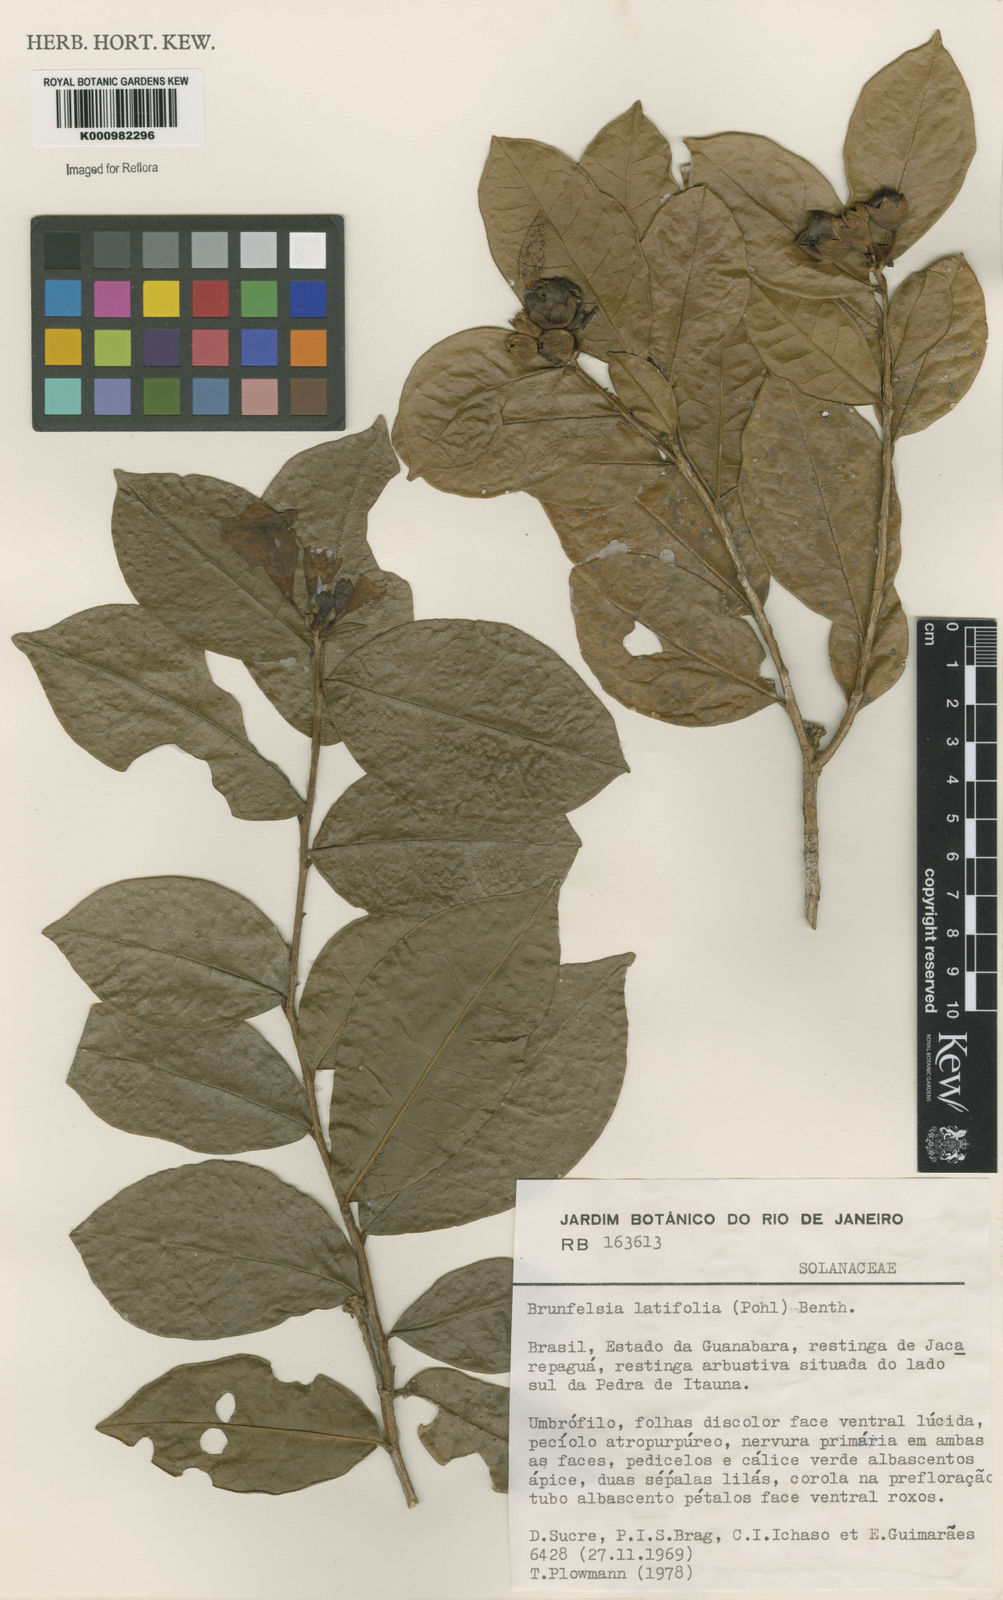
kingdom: Plantae
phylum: Tracheophyta
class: Magnoliopsida
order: Solanales
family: Solanaceae
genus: Brunfelsia
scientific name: Brunfelsia latifolia
